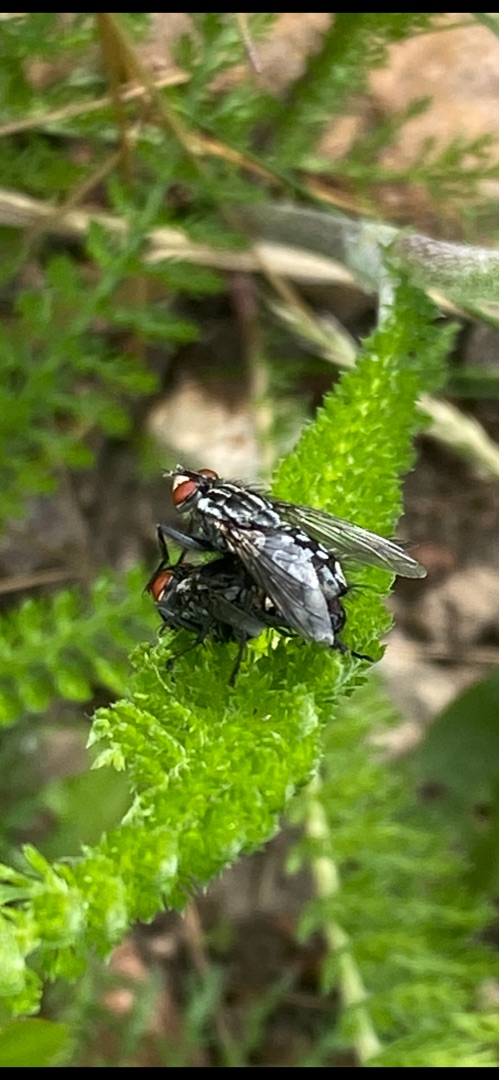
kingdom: Animalia
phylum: Arthropoda
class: Insecta
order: Diptera
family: Sarcophagidae
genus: Sarcophaga
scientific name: Sarcophaga
